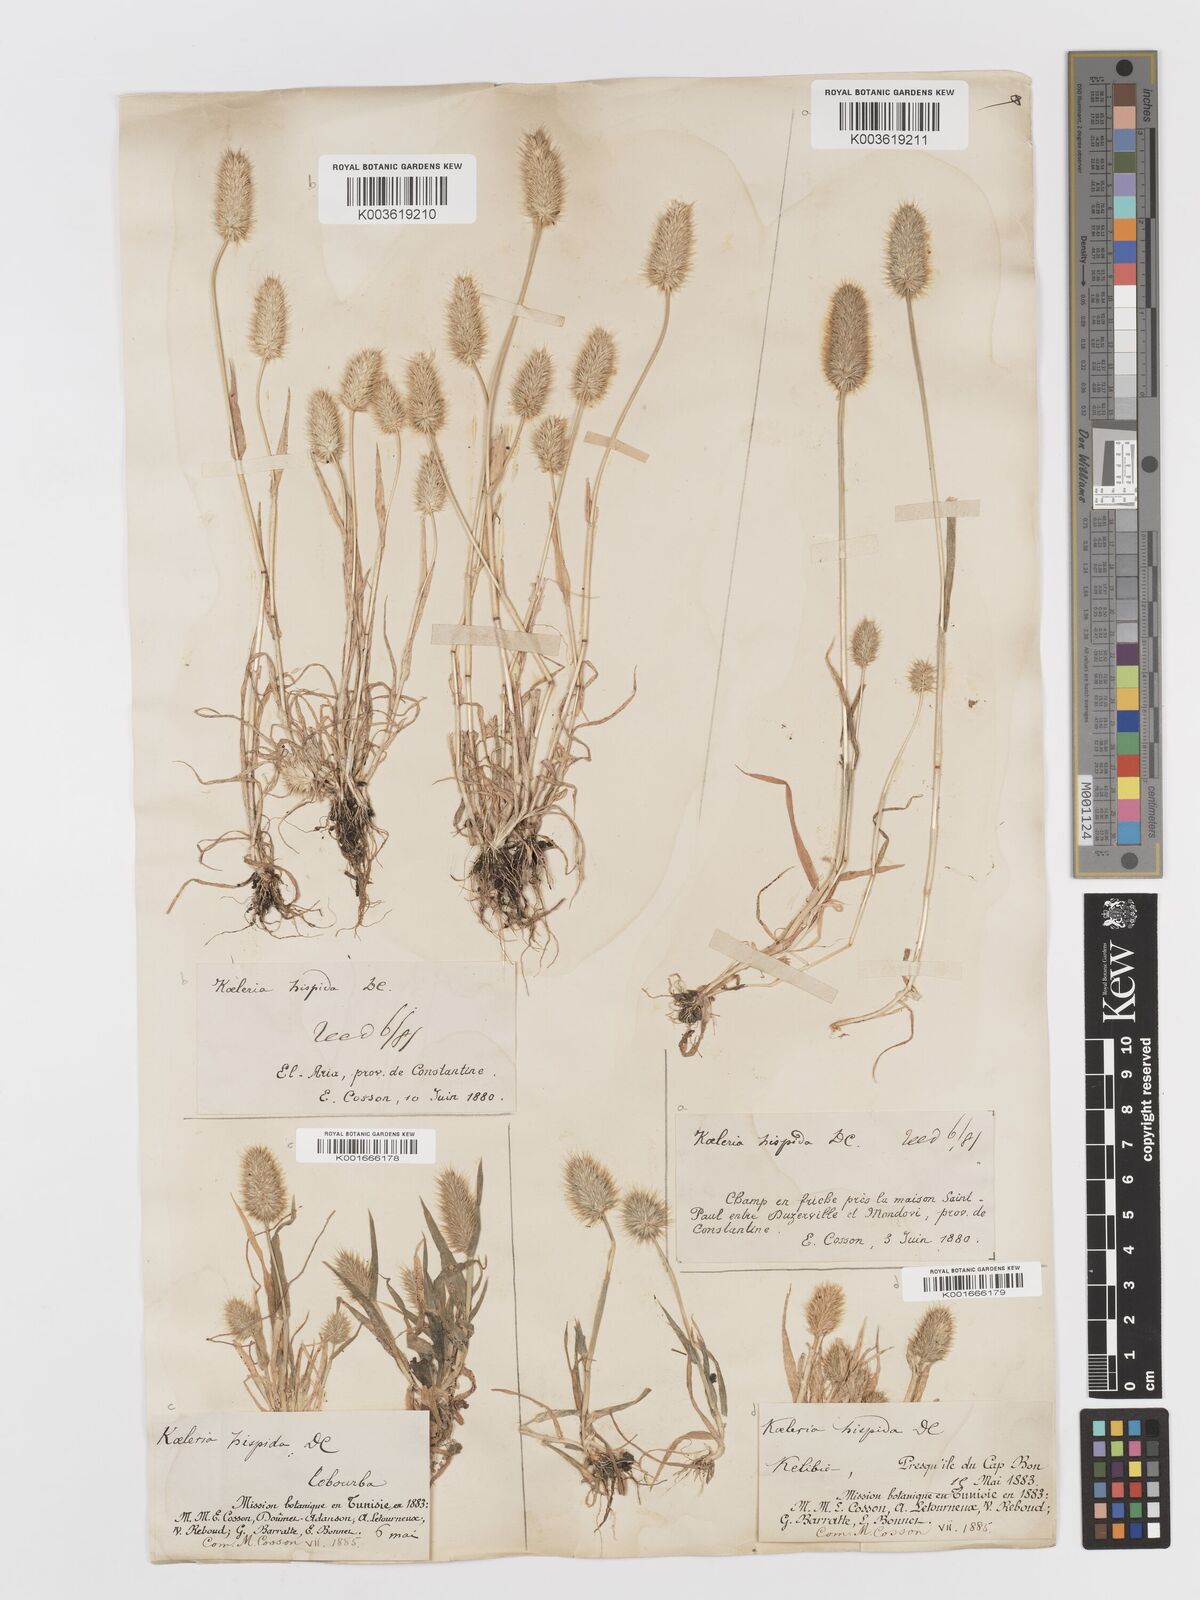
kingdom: Plantae
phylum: Tracheophyta
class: Liliopsida
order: Poales
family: Poaceae
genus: Rostraria
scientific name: Rostraria hispida
